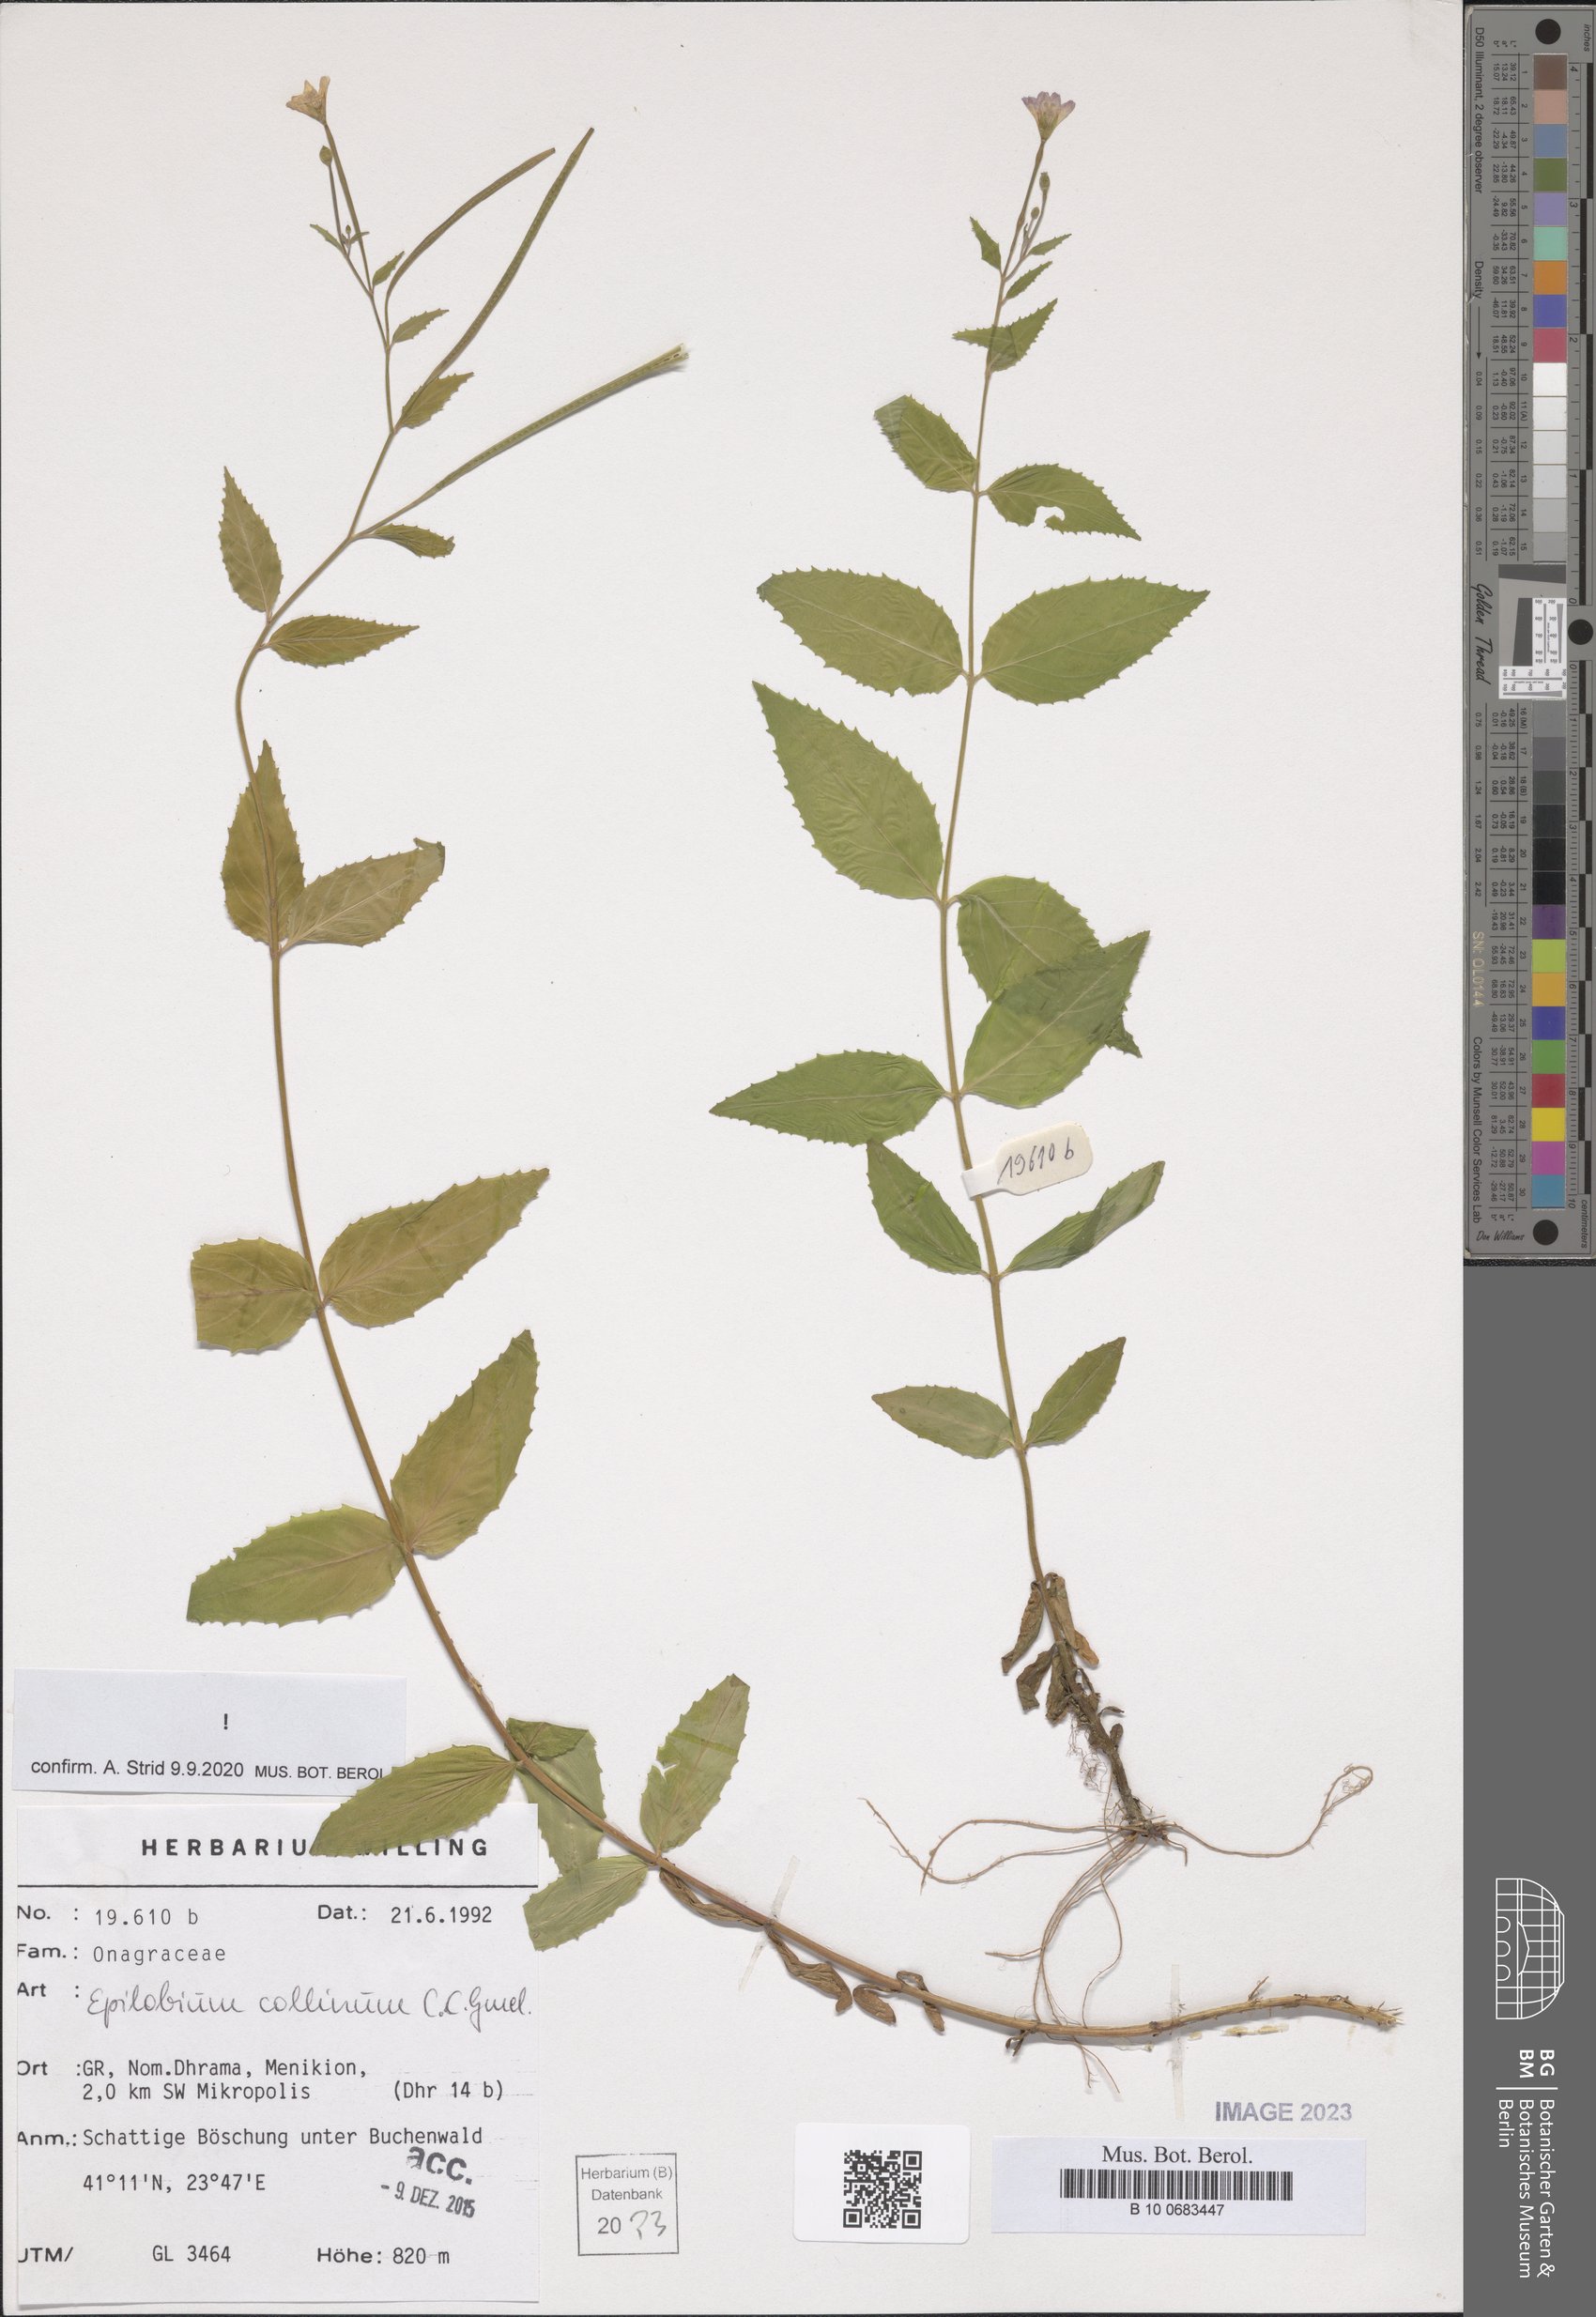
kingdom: Plantae
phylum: Tracheophyta
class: Magnoliopsida
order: Myrtales
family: Onagraceae
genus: Epilobium
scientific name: Epilobium collinum
